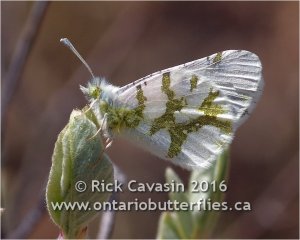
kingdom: Animalia
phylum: Arthropoda
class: Insecta
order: Lepidoptera
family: Pieridae
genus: Euchloe
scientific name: Euchloe olympia
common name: Olympia Marble
